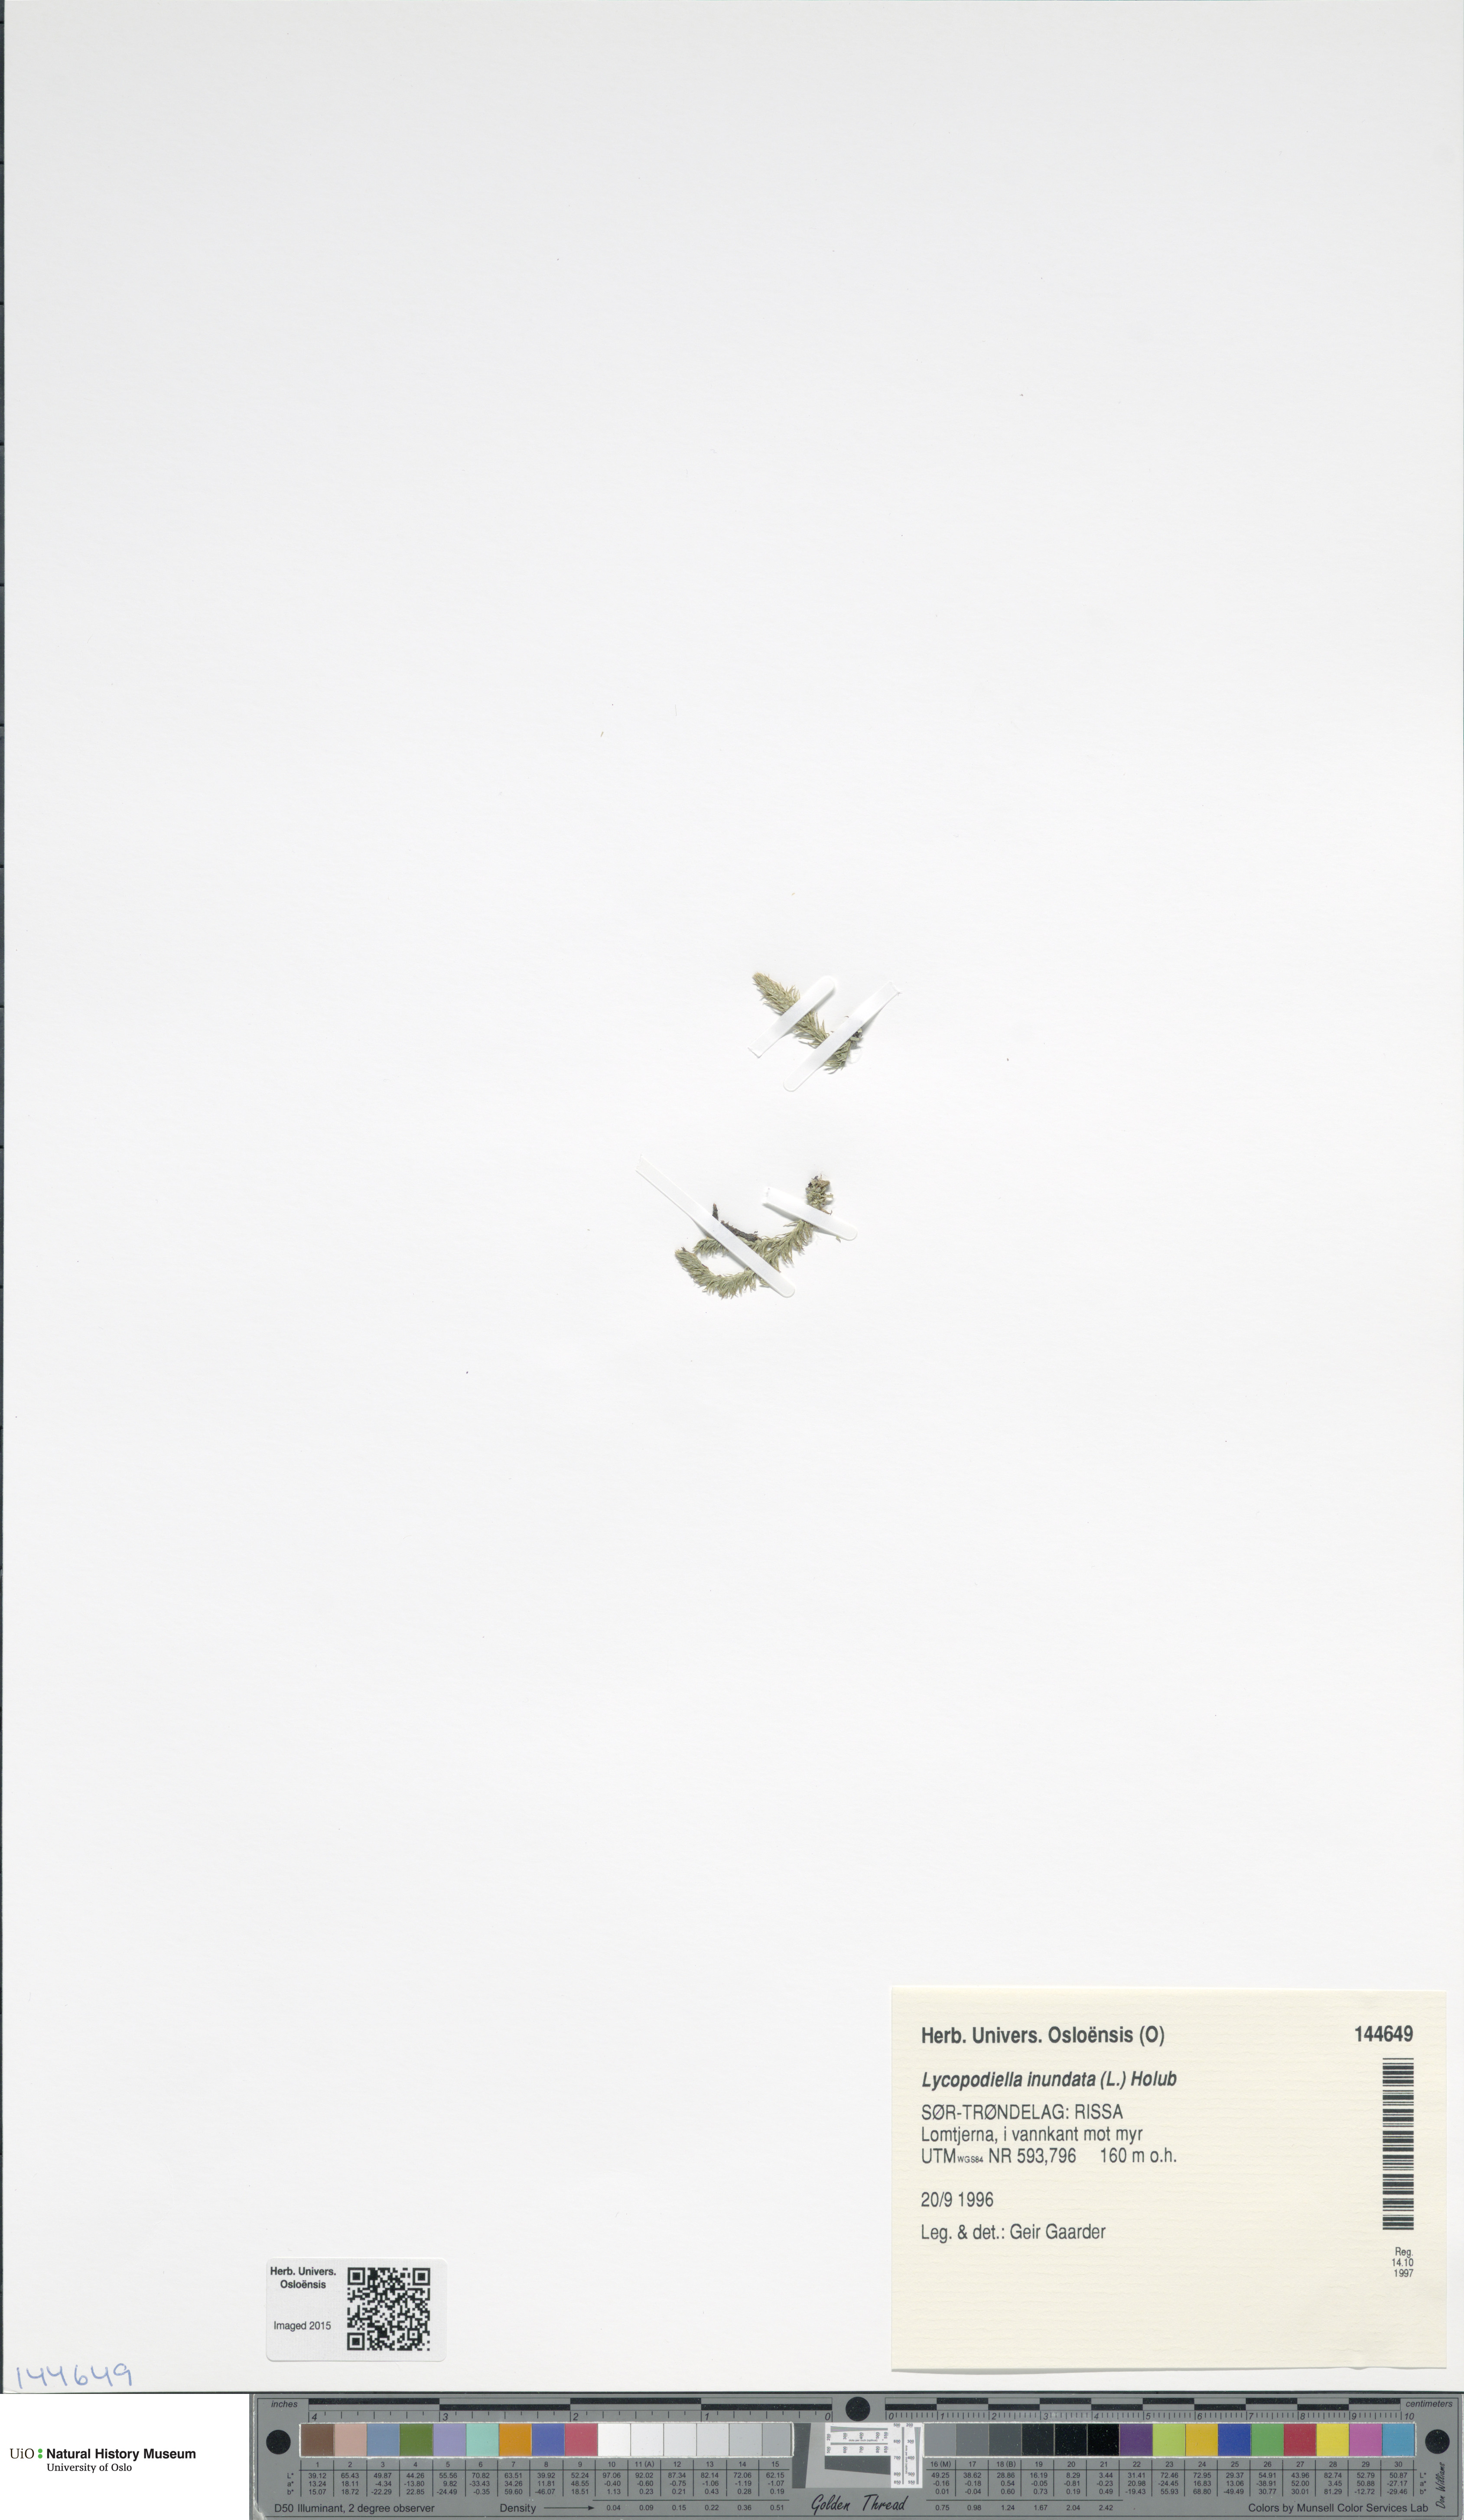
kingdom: Plantae
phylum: Tracheophyta
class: Lycopodiopsida
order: Lycopodiales
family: Lycopodiaceae
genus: Lycopodiella
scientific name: Lycopodiella inundata
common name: Marsh clubmoss
